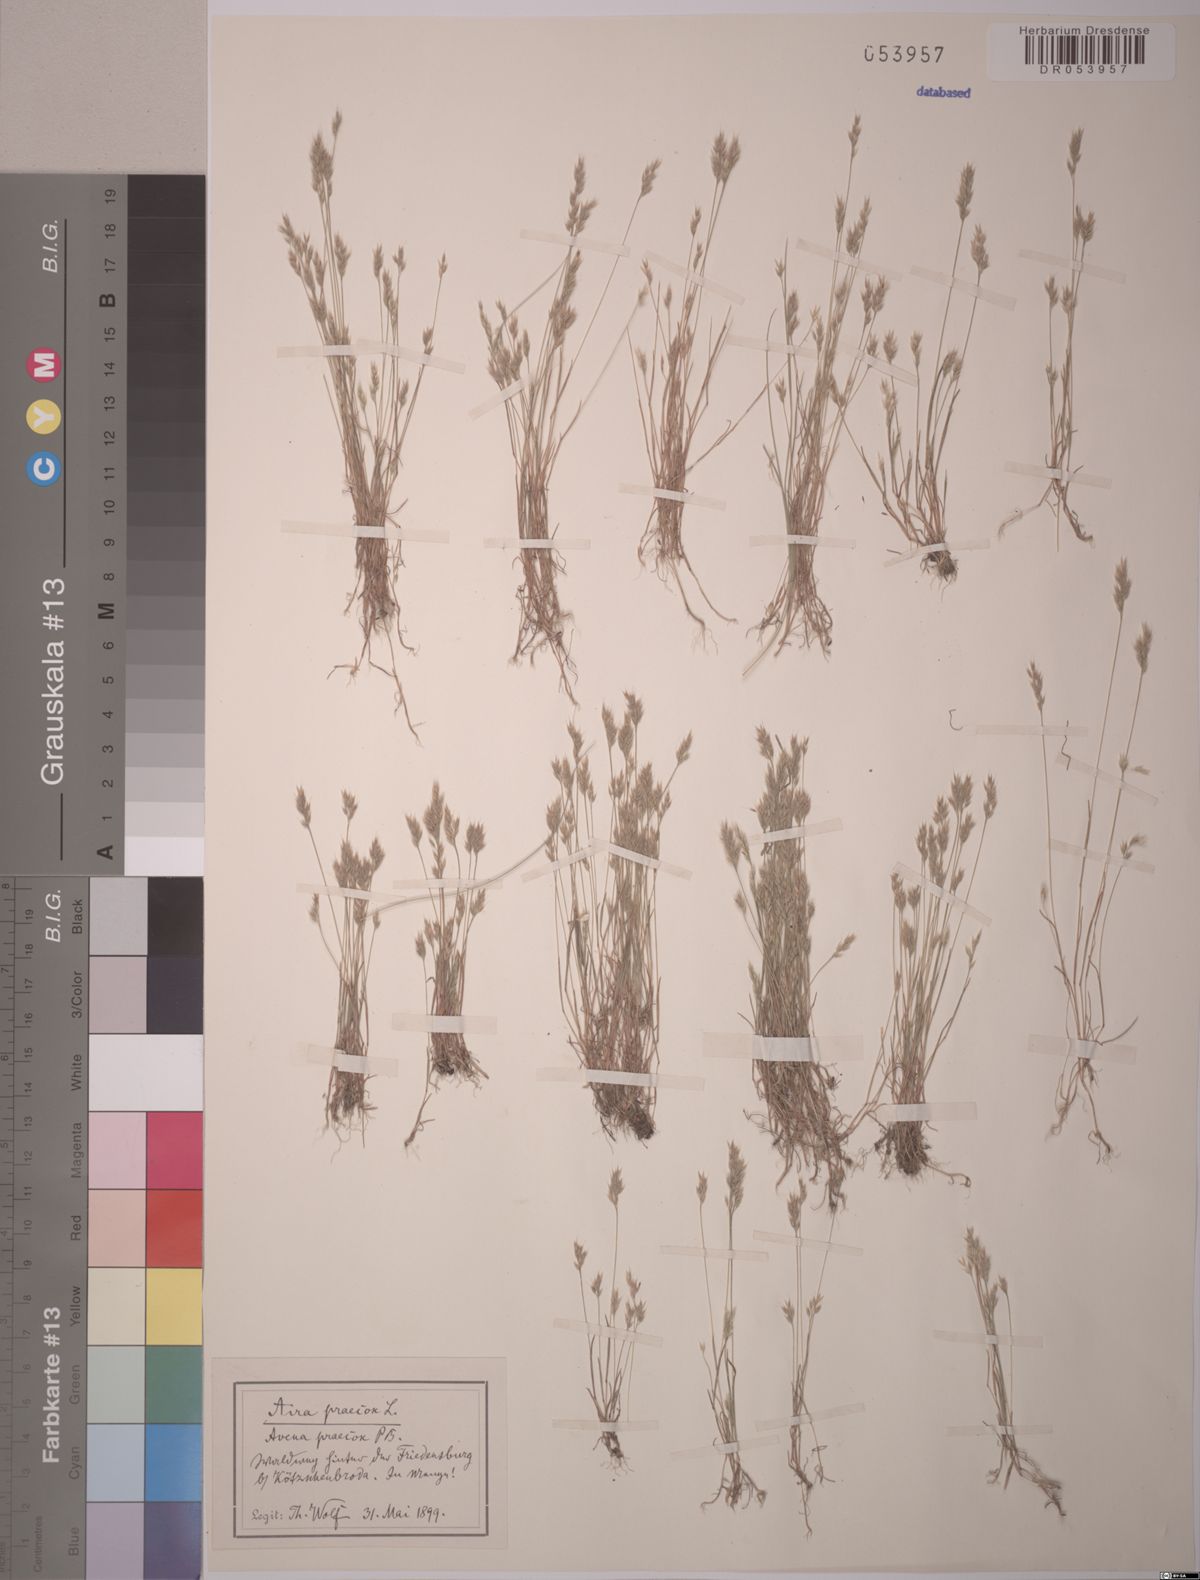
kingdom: Plantae
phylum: Tracheophyta
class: Liliopsida
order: Poales
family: Poaceae
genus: Aira
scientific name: Aira praecox
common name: Early hair-grass
